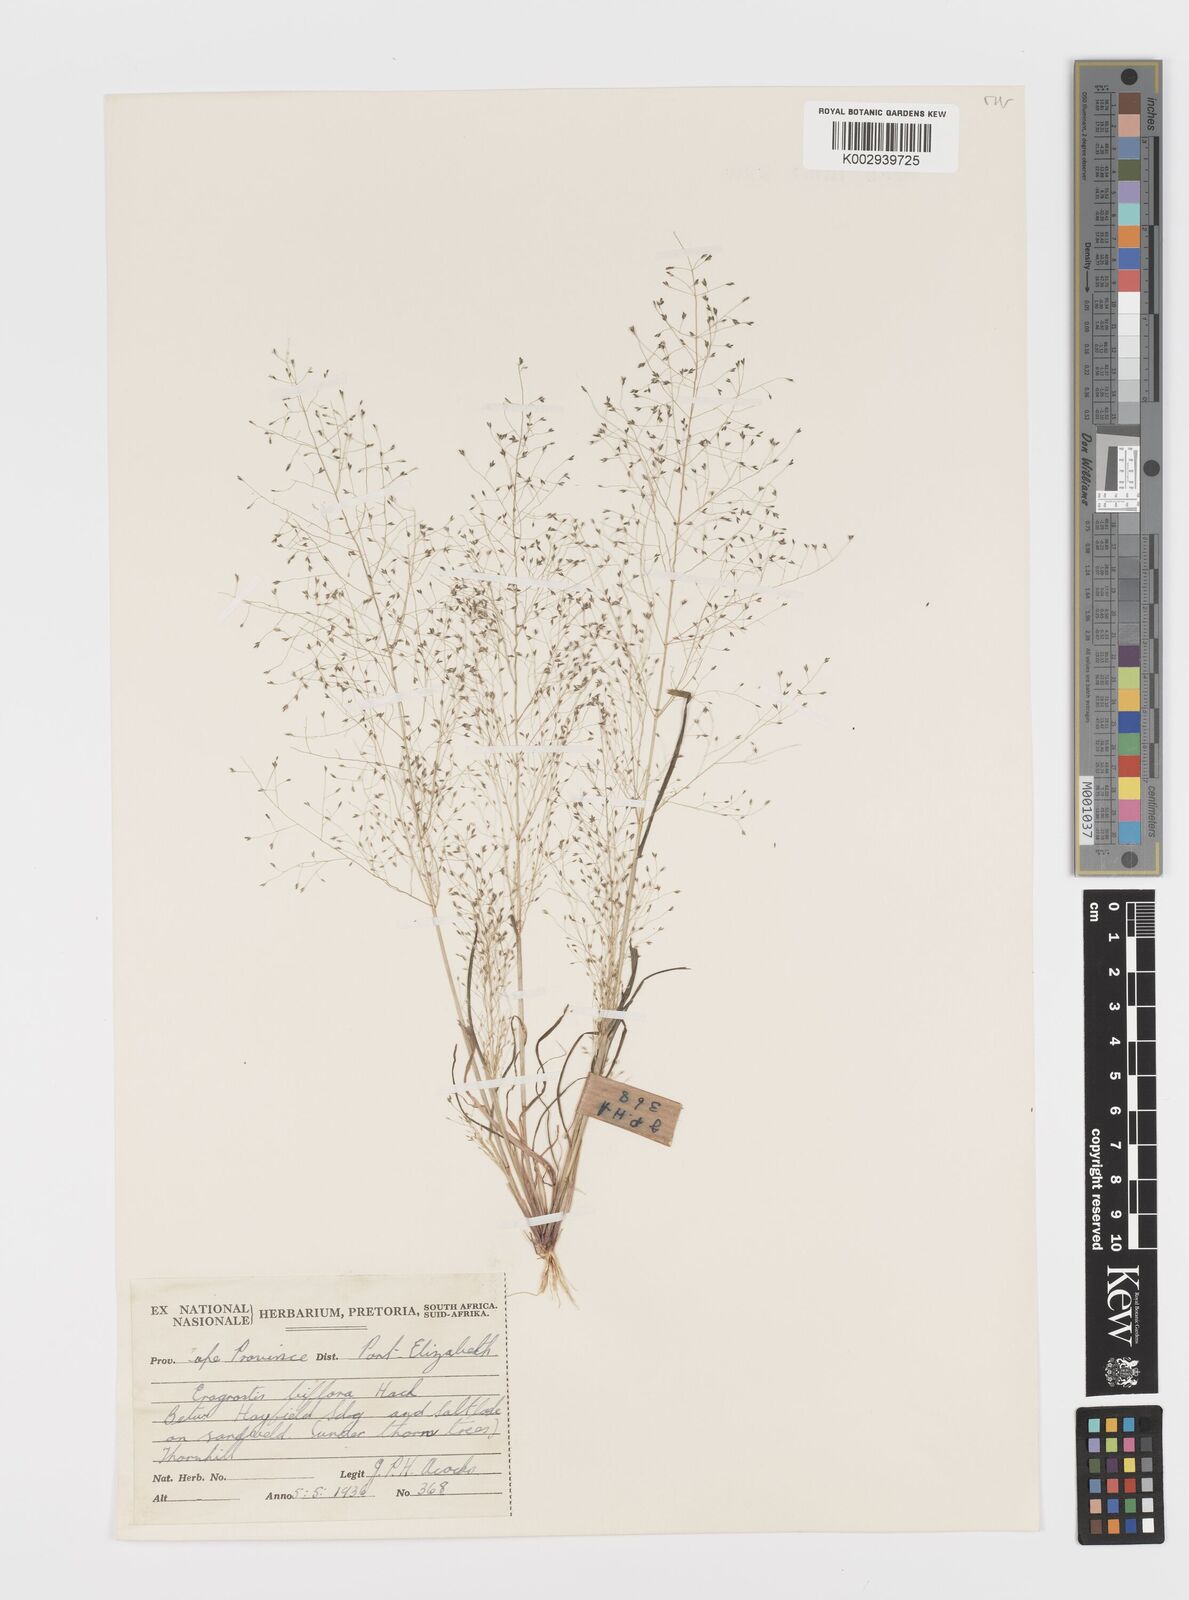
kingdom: Plantae
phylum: Tracheophyta
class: Liliopsida
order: Poales
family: Poaceae
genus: Eragrostis
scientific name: Eragrostis biflora
